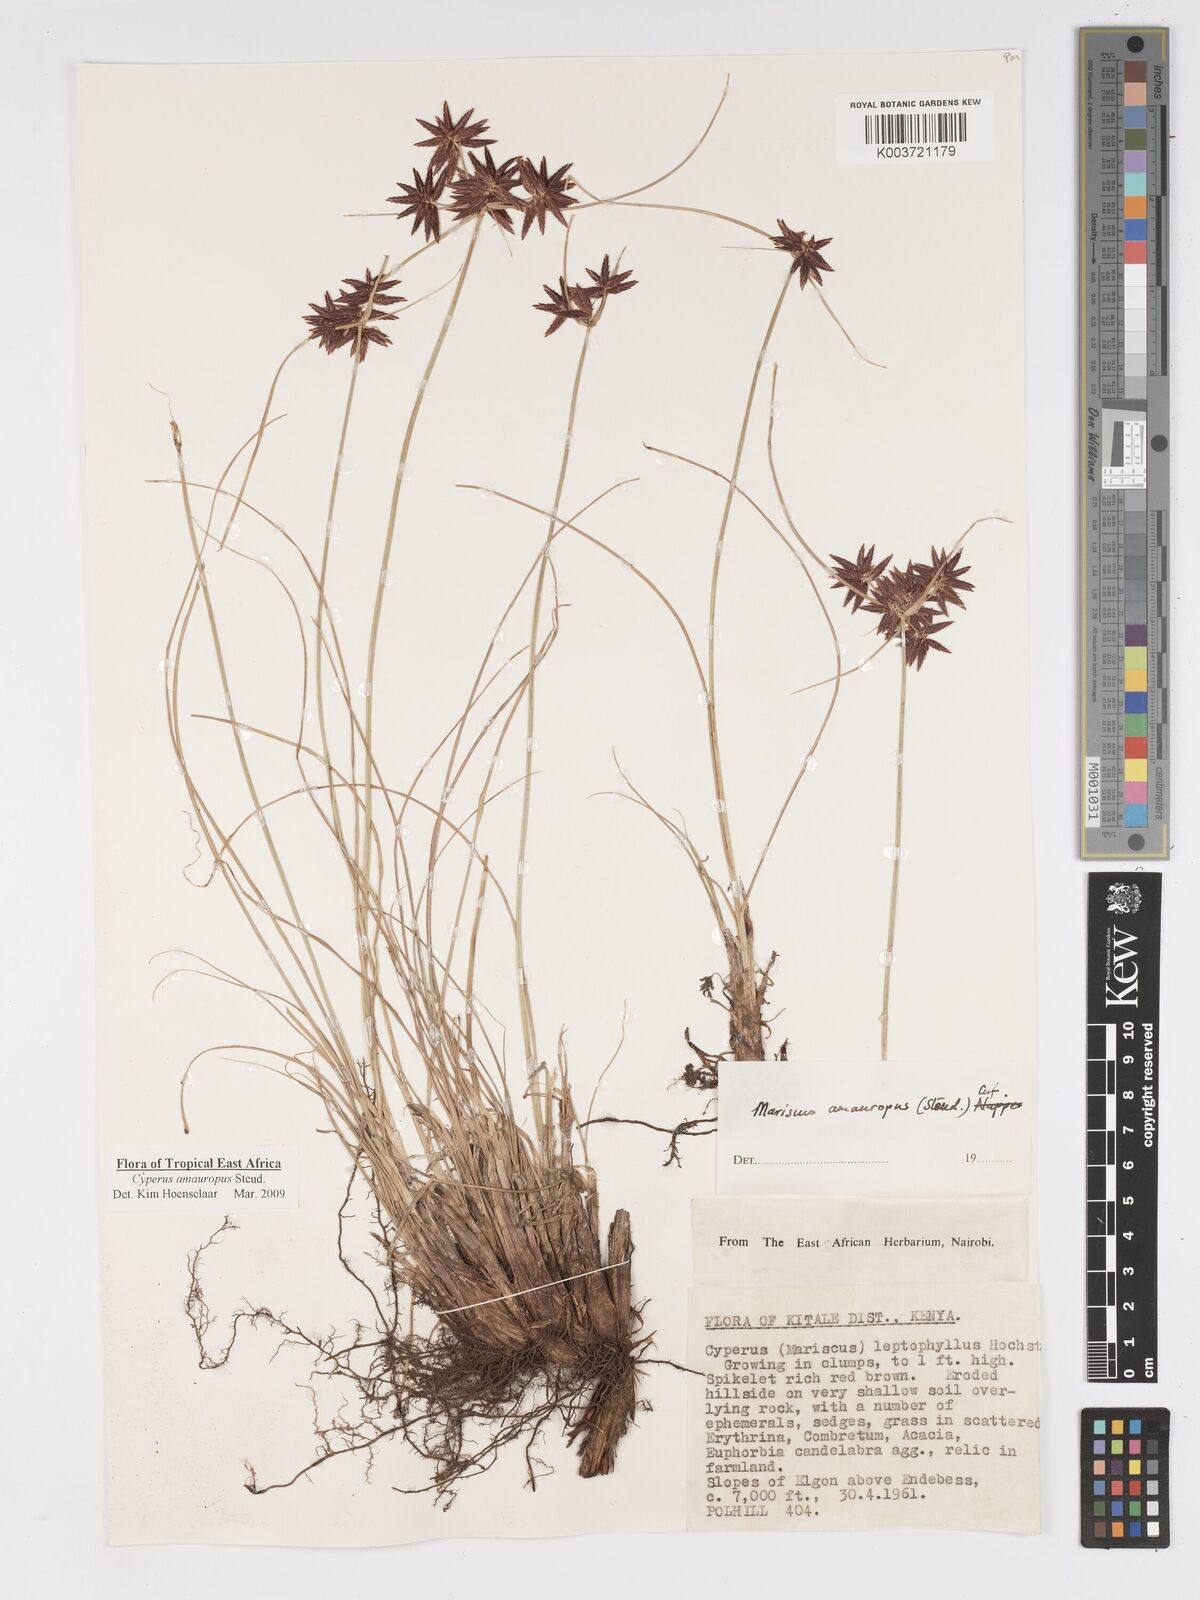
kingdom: Plantae
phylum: Tracheophyta
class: Liliopsida
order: Poales
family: Cyperaceae
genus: Cyperus
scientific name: Cyperus amauropus
